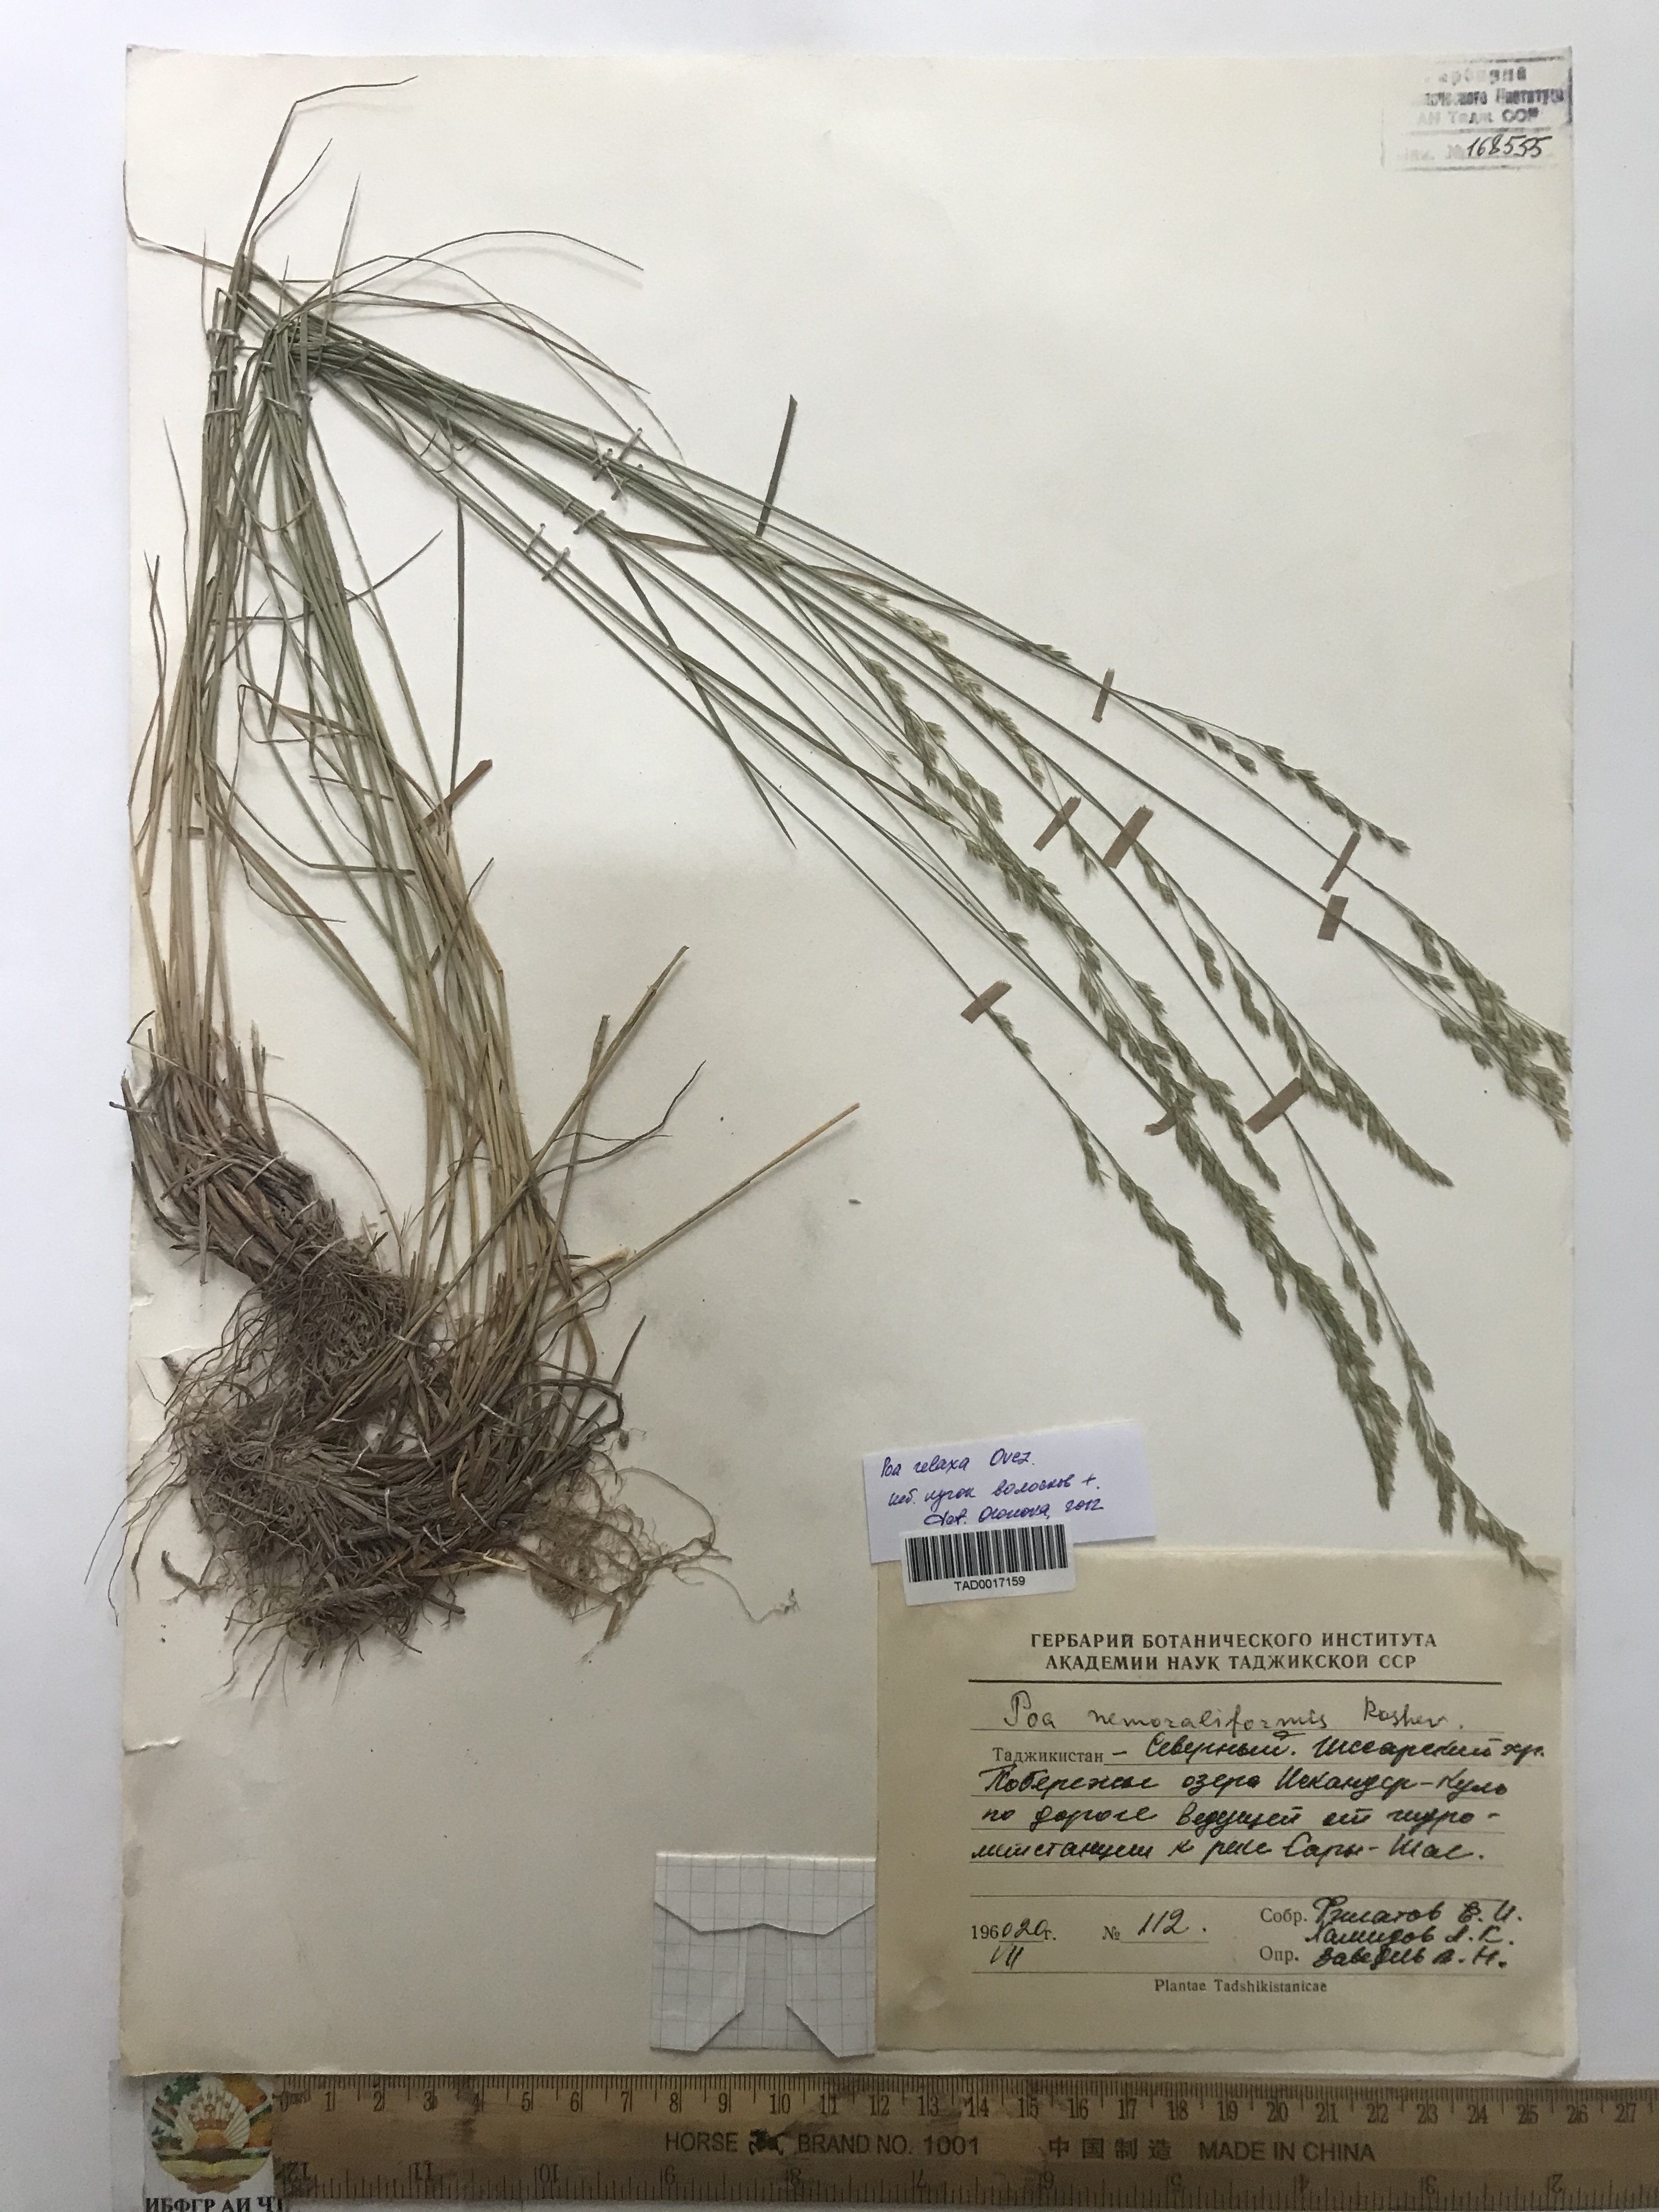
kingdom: Plantae
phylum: Tracheophyta
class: Liliopsida
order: Poales
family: Poaceae
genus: Poa
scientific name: Poa urssulensis
